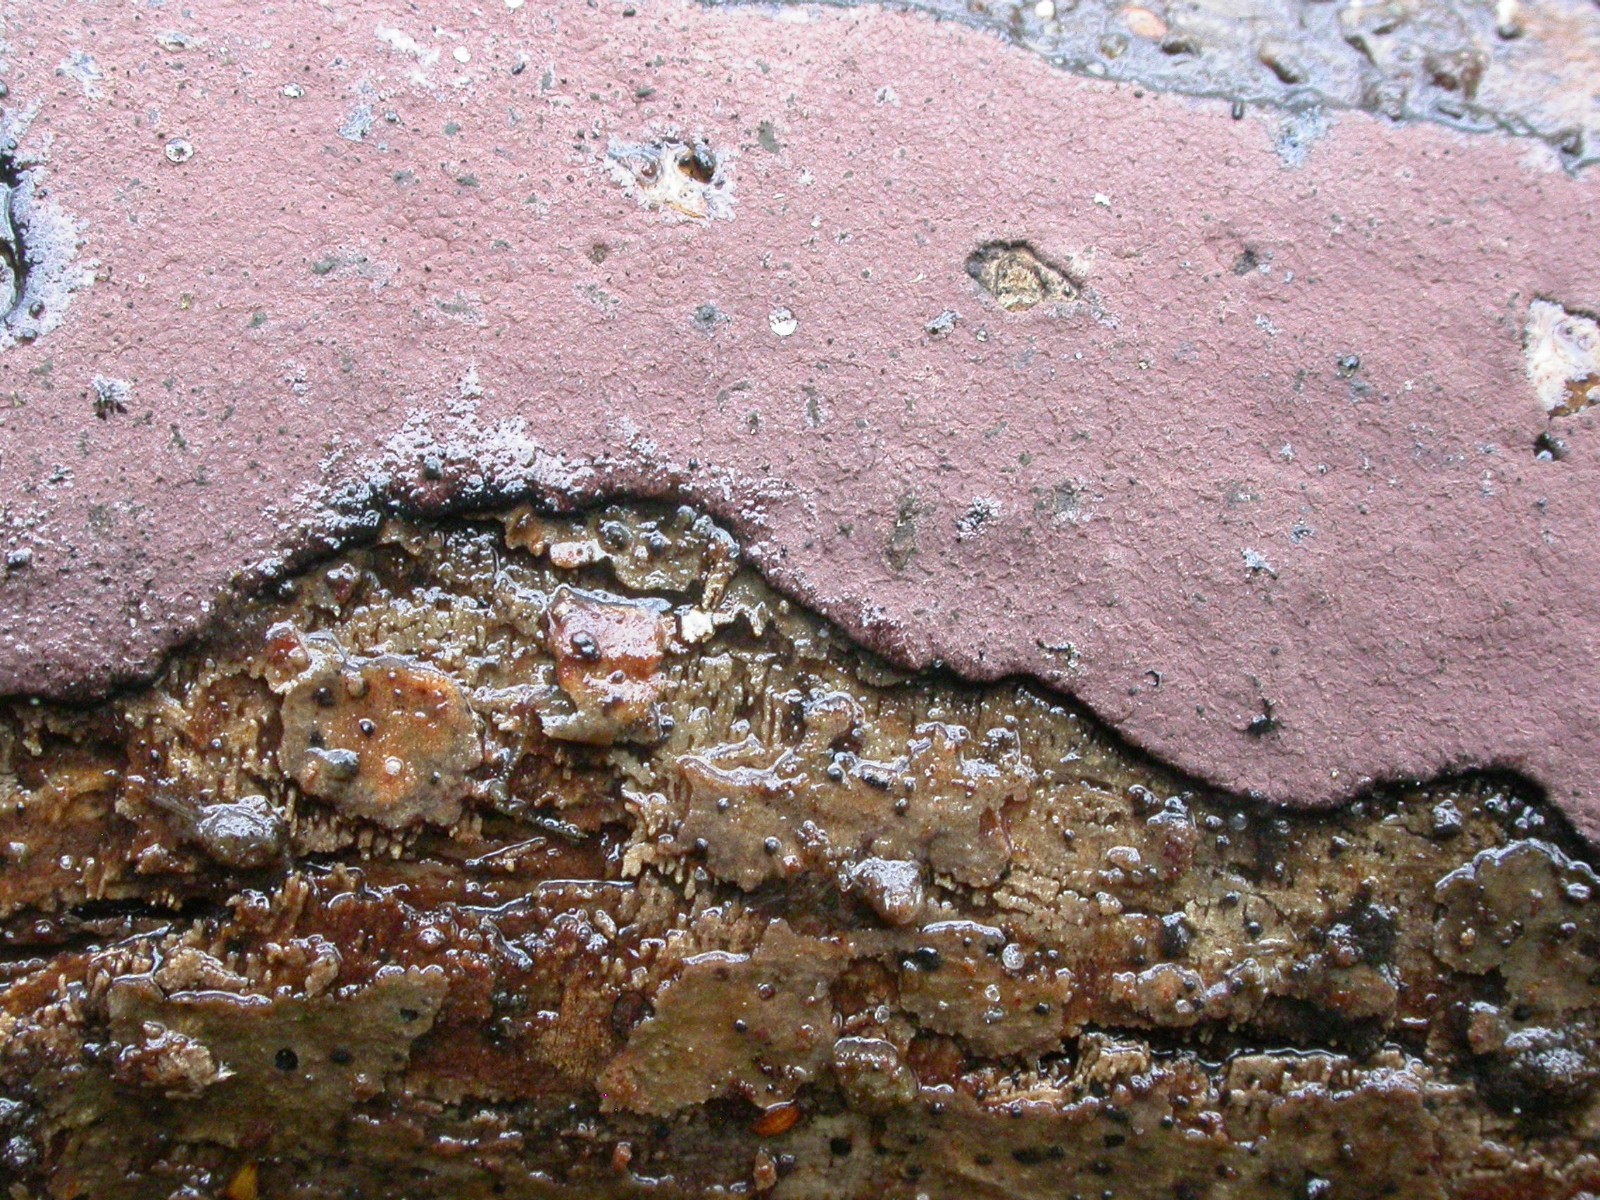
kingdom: Fungi
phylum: Ascomycota
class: Sordariomycetes
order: Xylariales
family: Hypoxylaceae
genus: Hypoxylon
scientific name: Hypoxylon petriniae
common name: nedsænket kulbær
